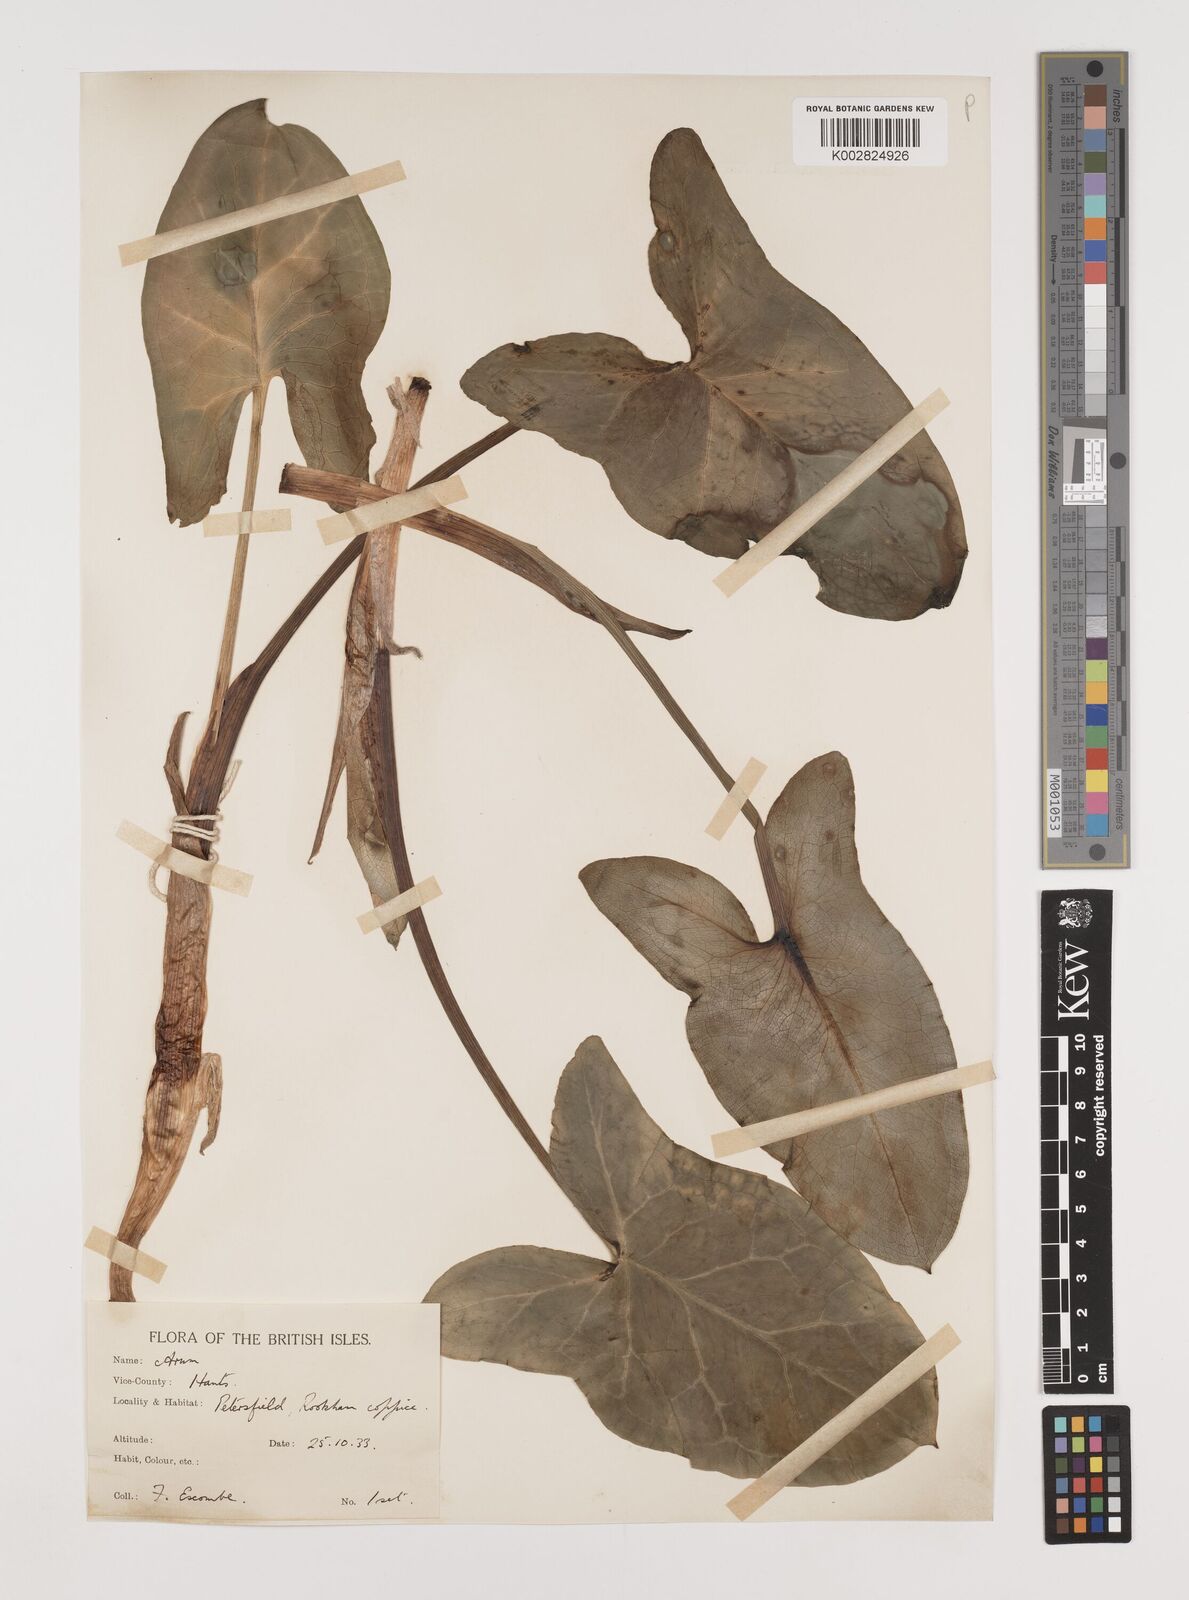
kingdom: Plantae
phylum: Tracheophyta
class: Liliopsida
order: Alismatales
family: Araceae
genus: Arum
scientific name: Arum italicum
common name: Italian lords-and-ladies
